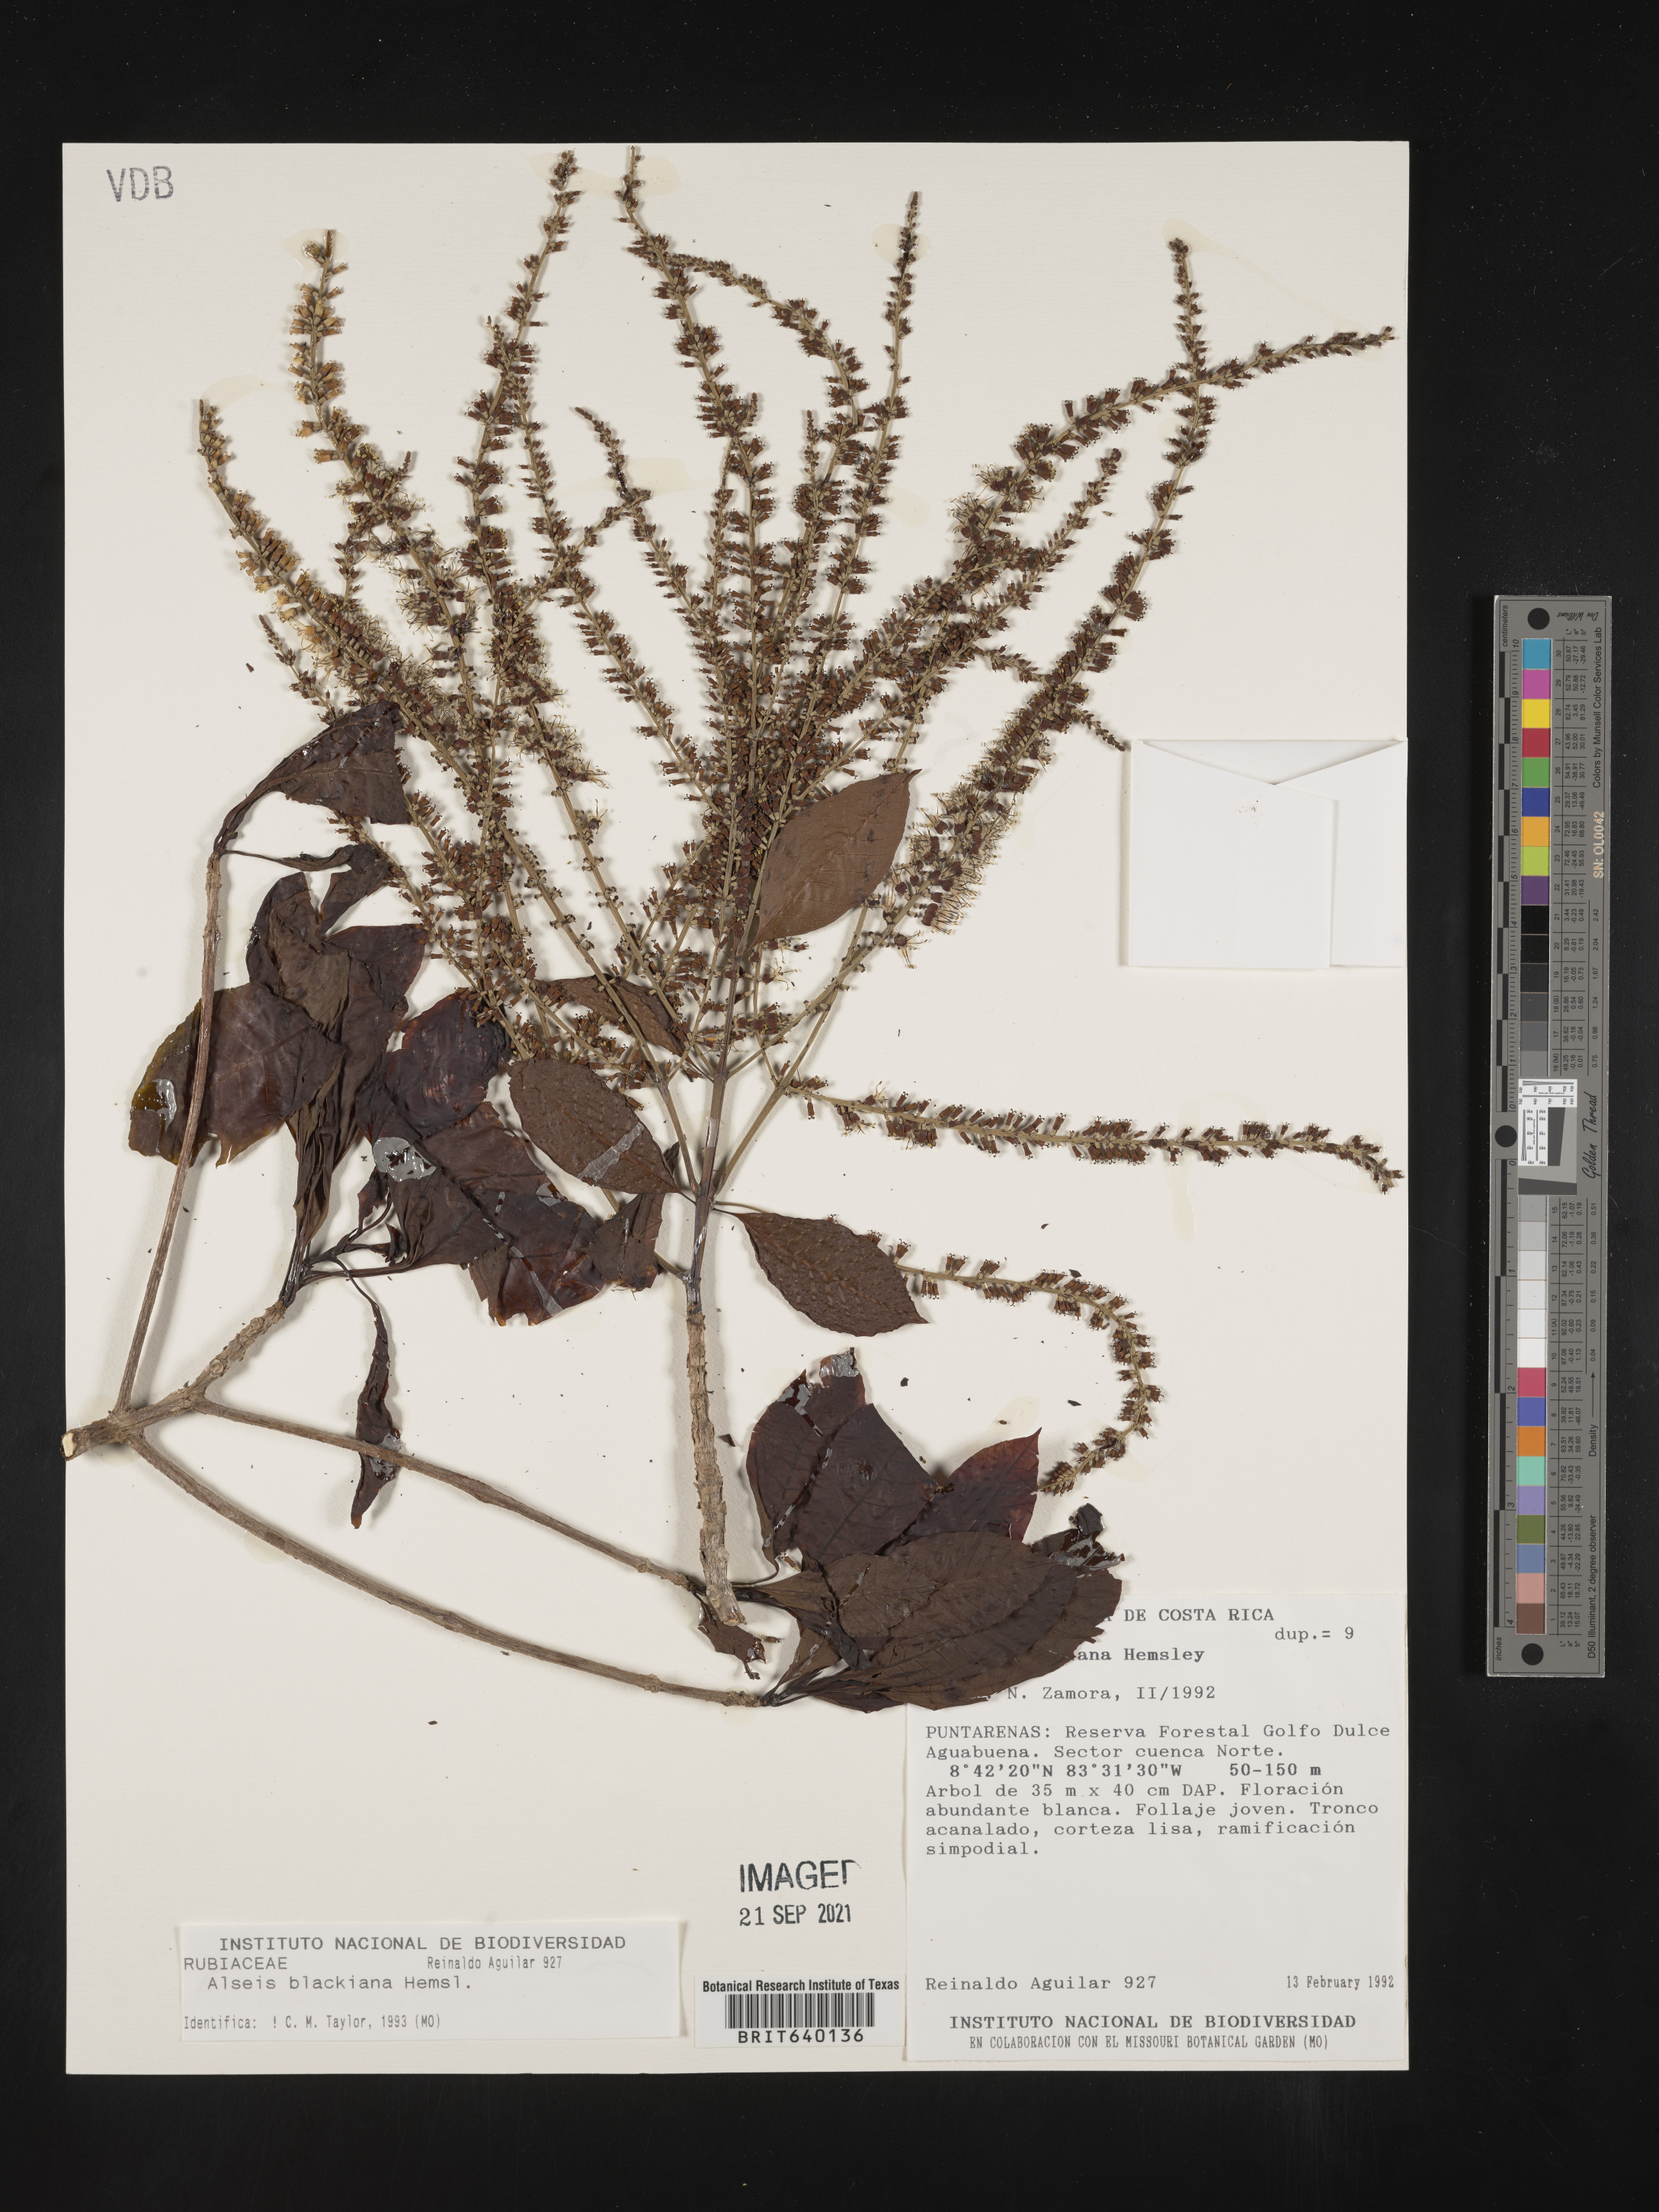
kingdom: Plantae
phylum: Tracheophyta
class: Magnoliopsida
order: Gentianales
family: Rubiaceae
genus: Alseis
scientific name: Alseis
